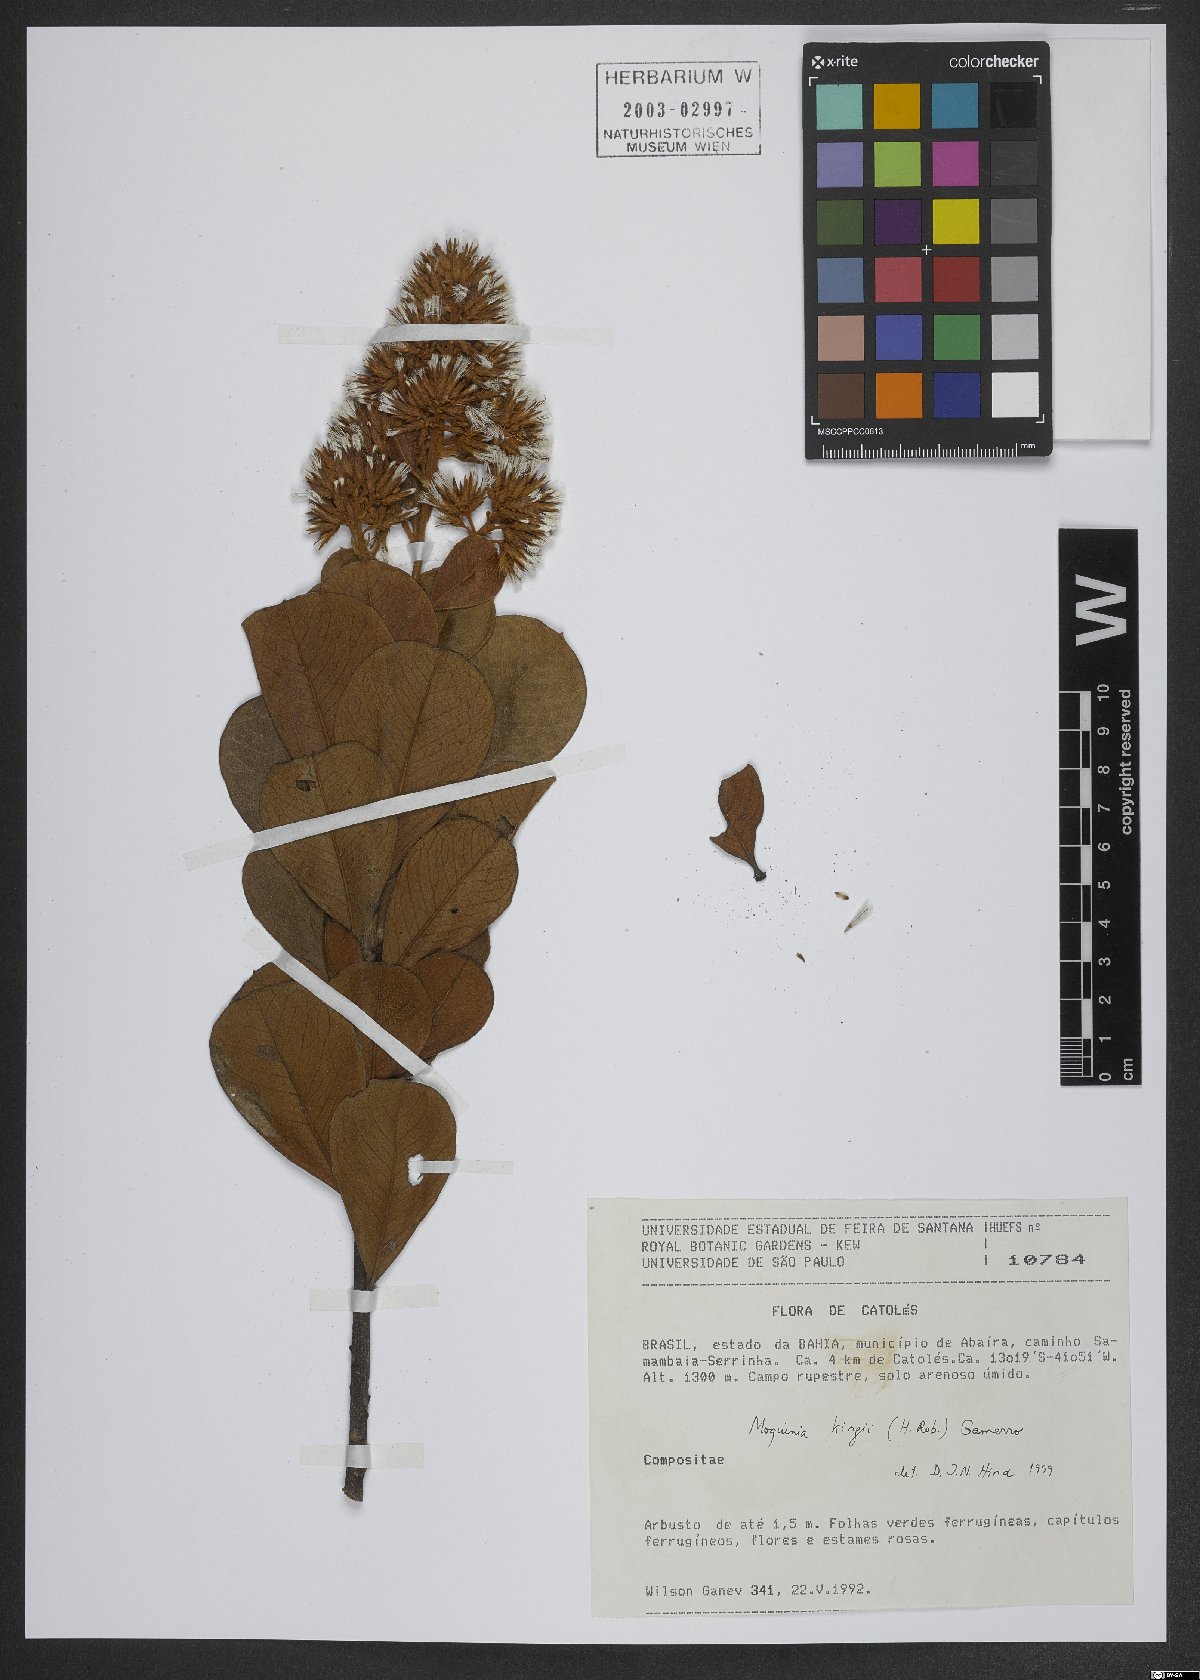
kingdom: Plantae
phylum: Tracheophyta
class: Magnoliopsida
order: Asterales
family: Asteraceae
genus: Pseudostifftia
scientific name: Pseudostifftia kingii
